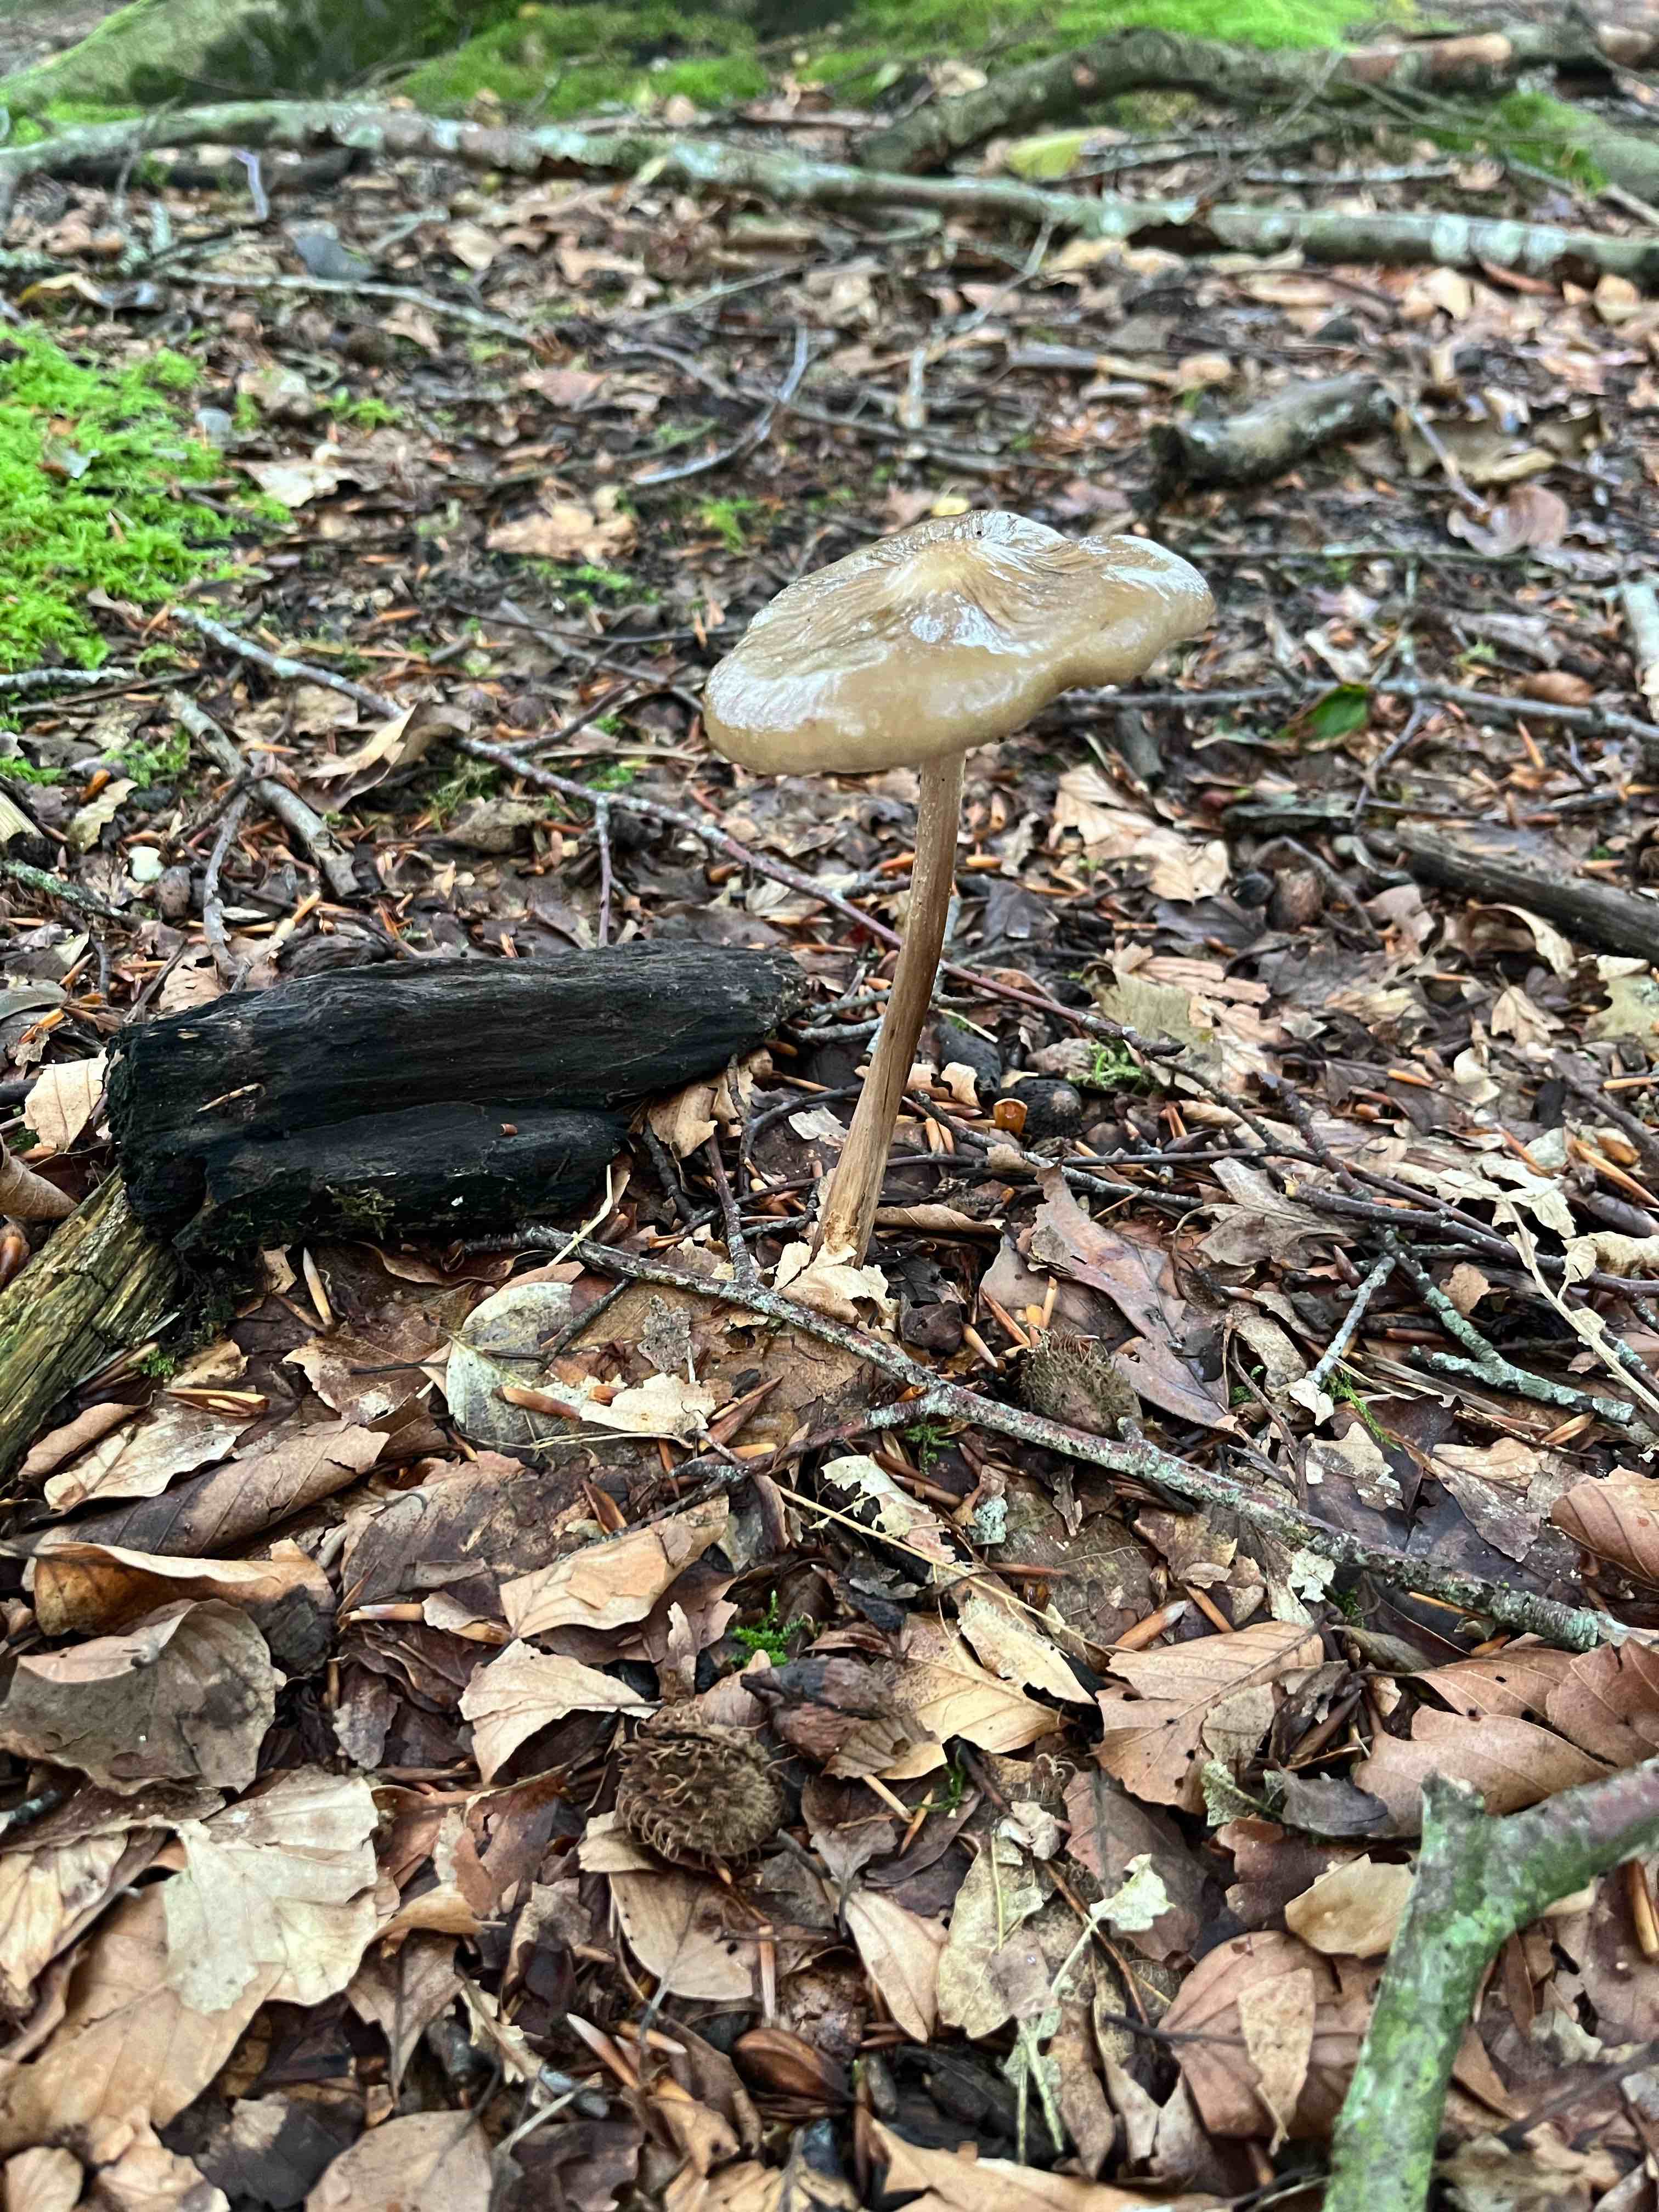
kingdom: Fungi
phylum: Basidiomycota
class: Agaricomycetes
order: Agaricales
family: Physalacriaceae
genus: Hymenopellis
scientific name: Hymenopellis radicata
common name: almindelig pælerodshat
